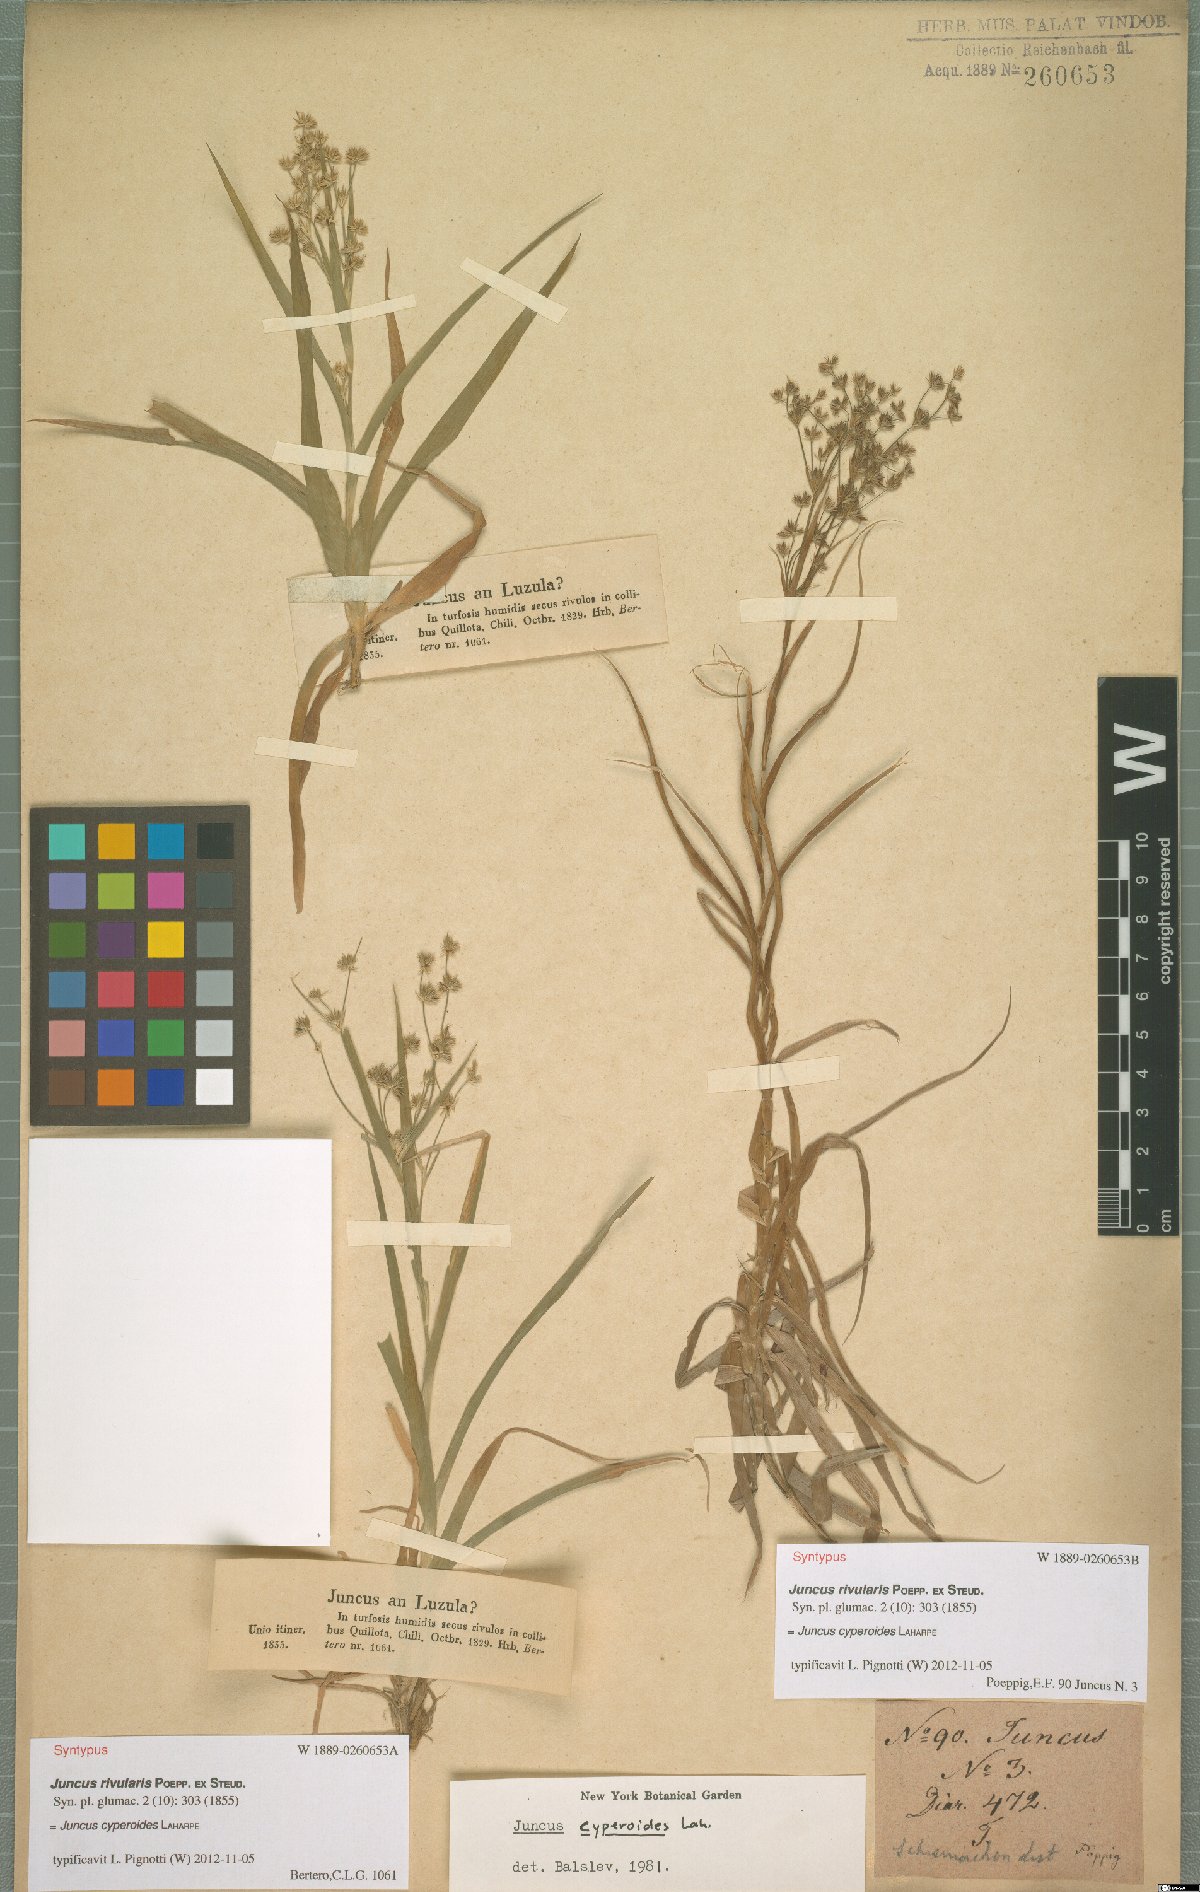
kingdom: Plantae
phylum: Tracheophyta
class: Liliopsida
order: Poales
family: Juncaceae
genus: Juncus
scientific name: Juncus cyperoides
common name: Forbestown rush
